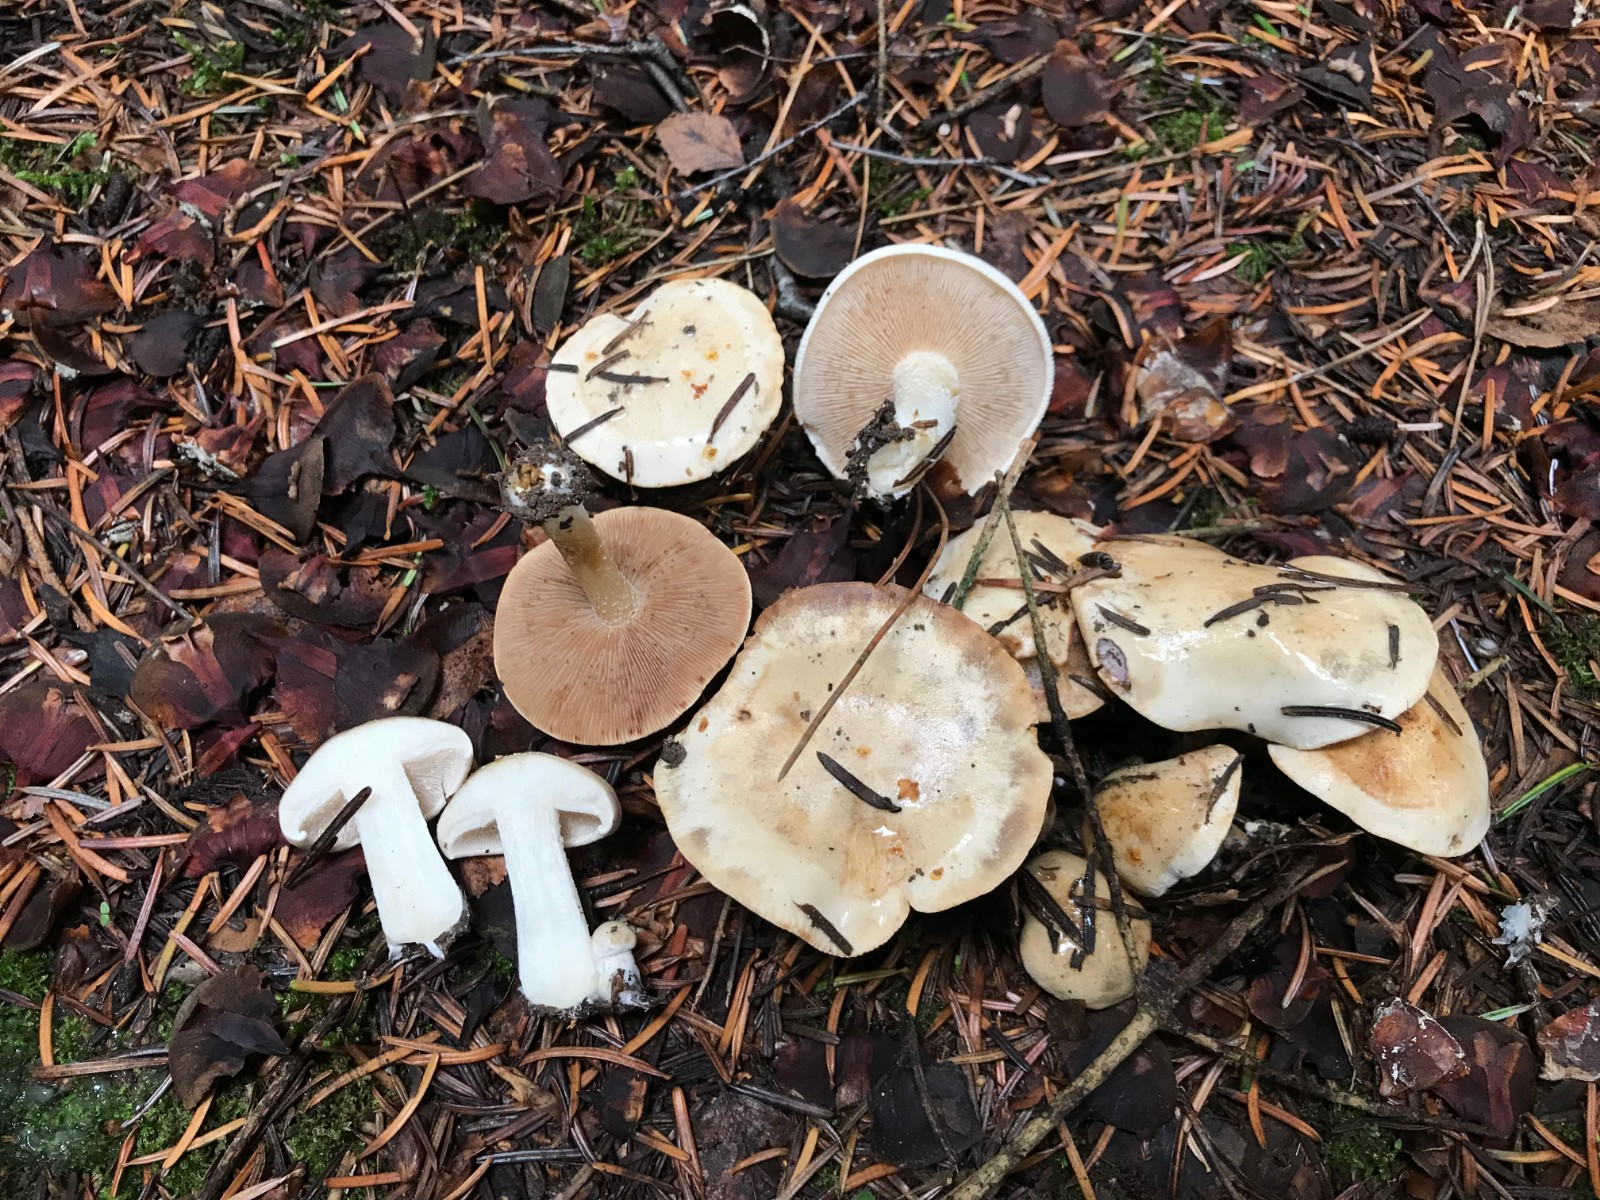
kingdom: Fungi
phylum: Basidiomycota
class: Agaricomycetes
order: Agaricales
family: Hymenogastraceae
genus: Hebeloma
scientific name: Hebeloma
